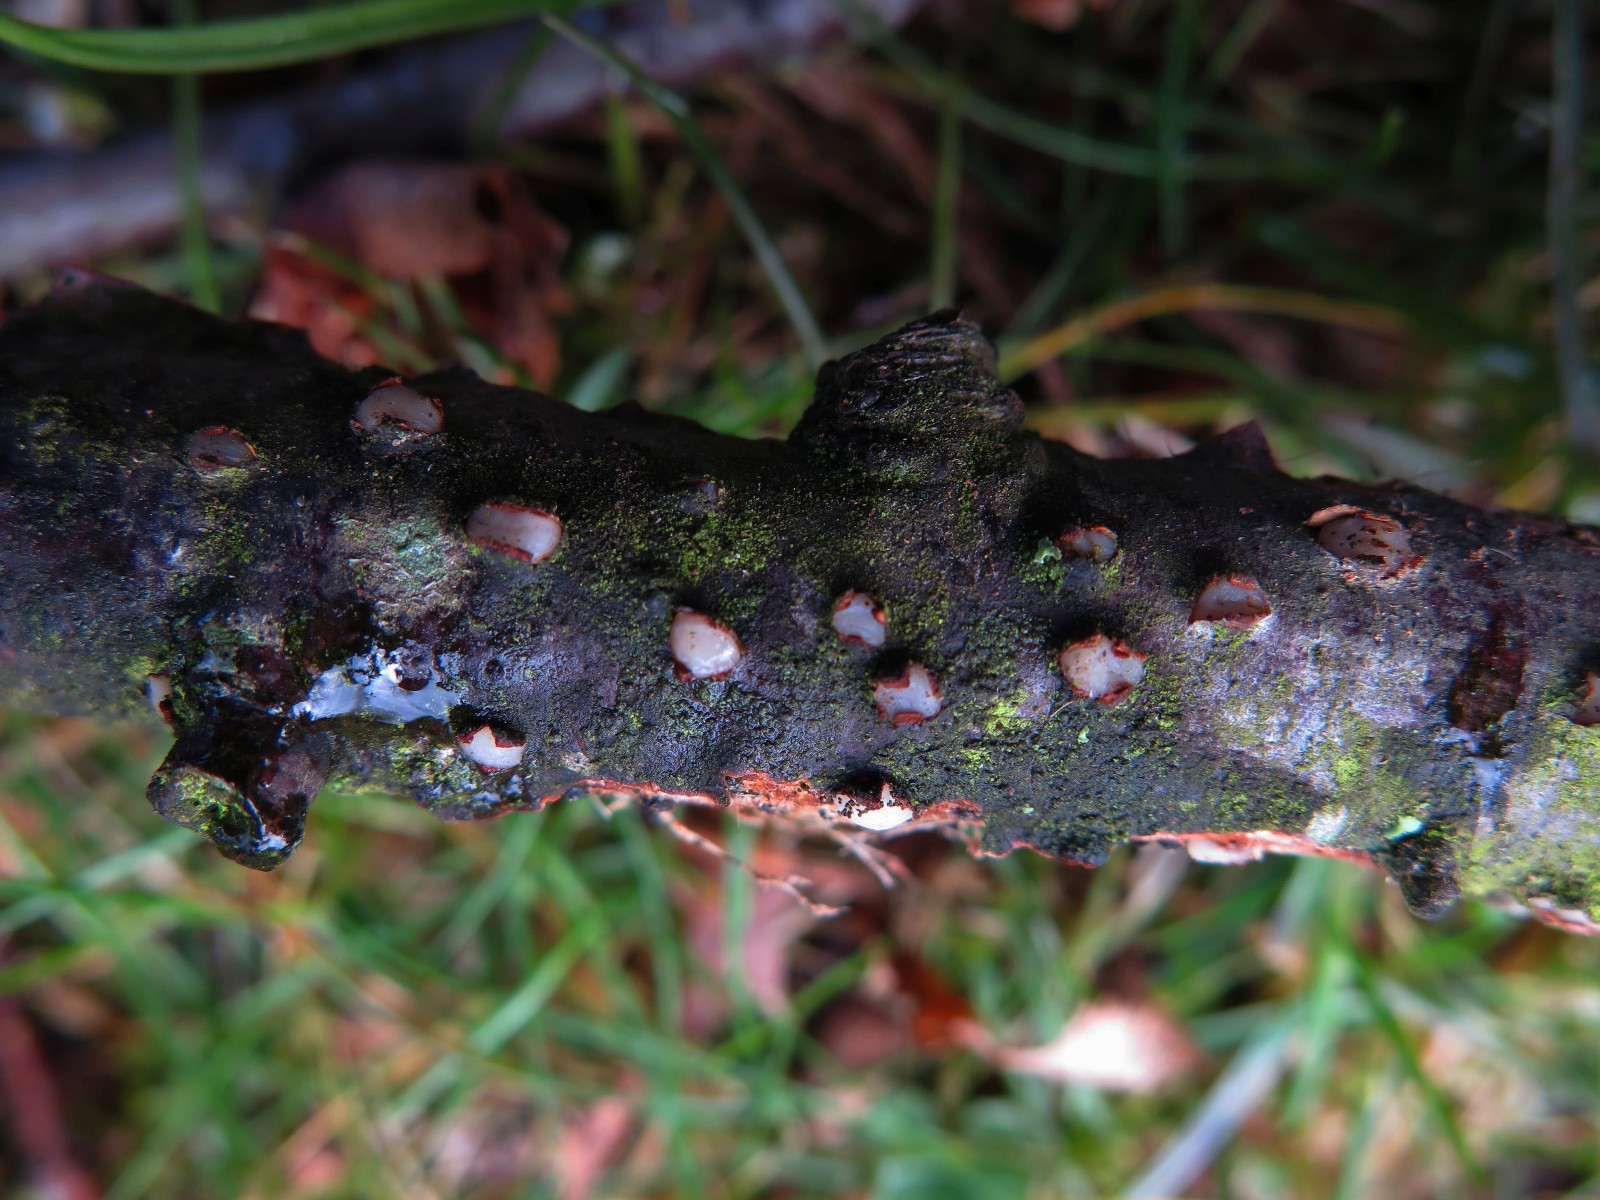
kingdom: Fungi
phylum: Basidiomycota
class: Pucciniomycetes
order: Platygloeales
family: Platygloeaceae
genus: Platygloea
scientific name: Platygloea disciformis
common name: linde-slimklat
